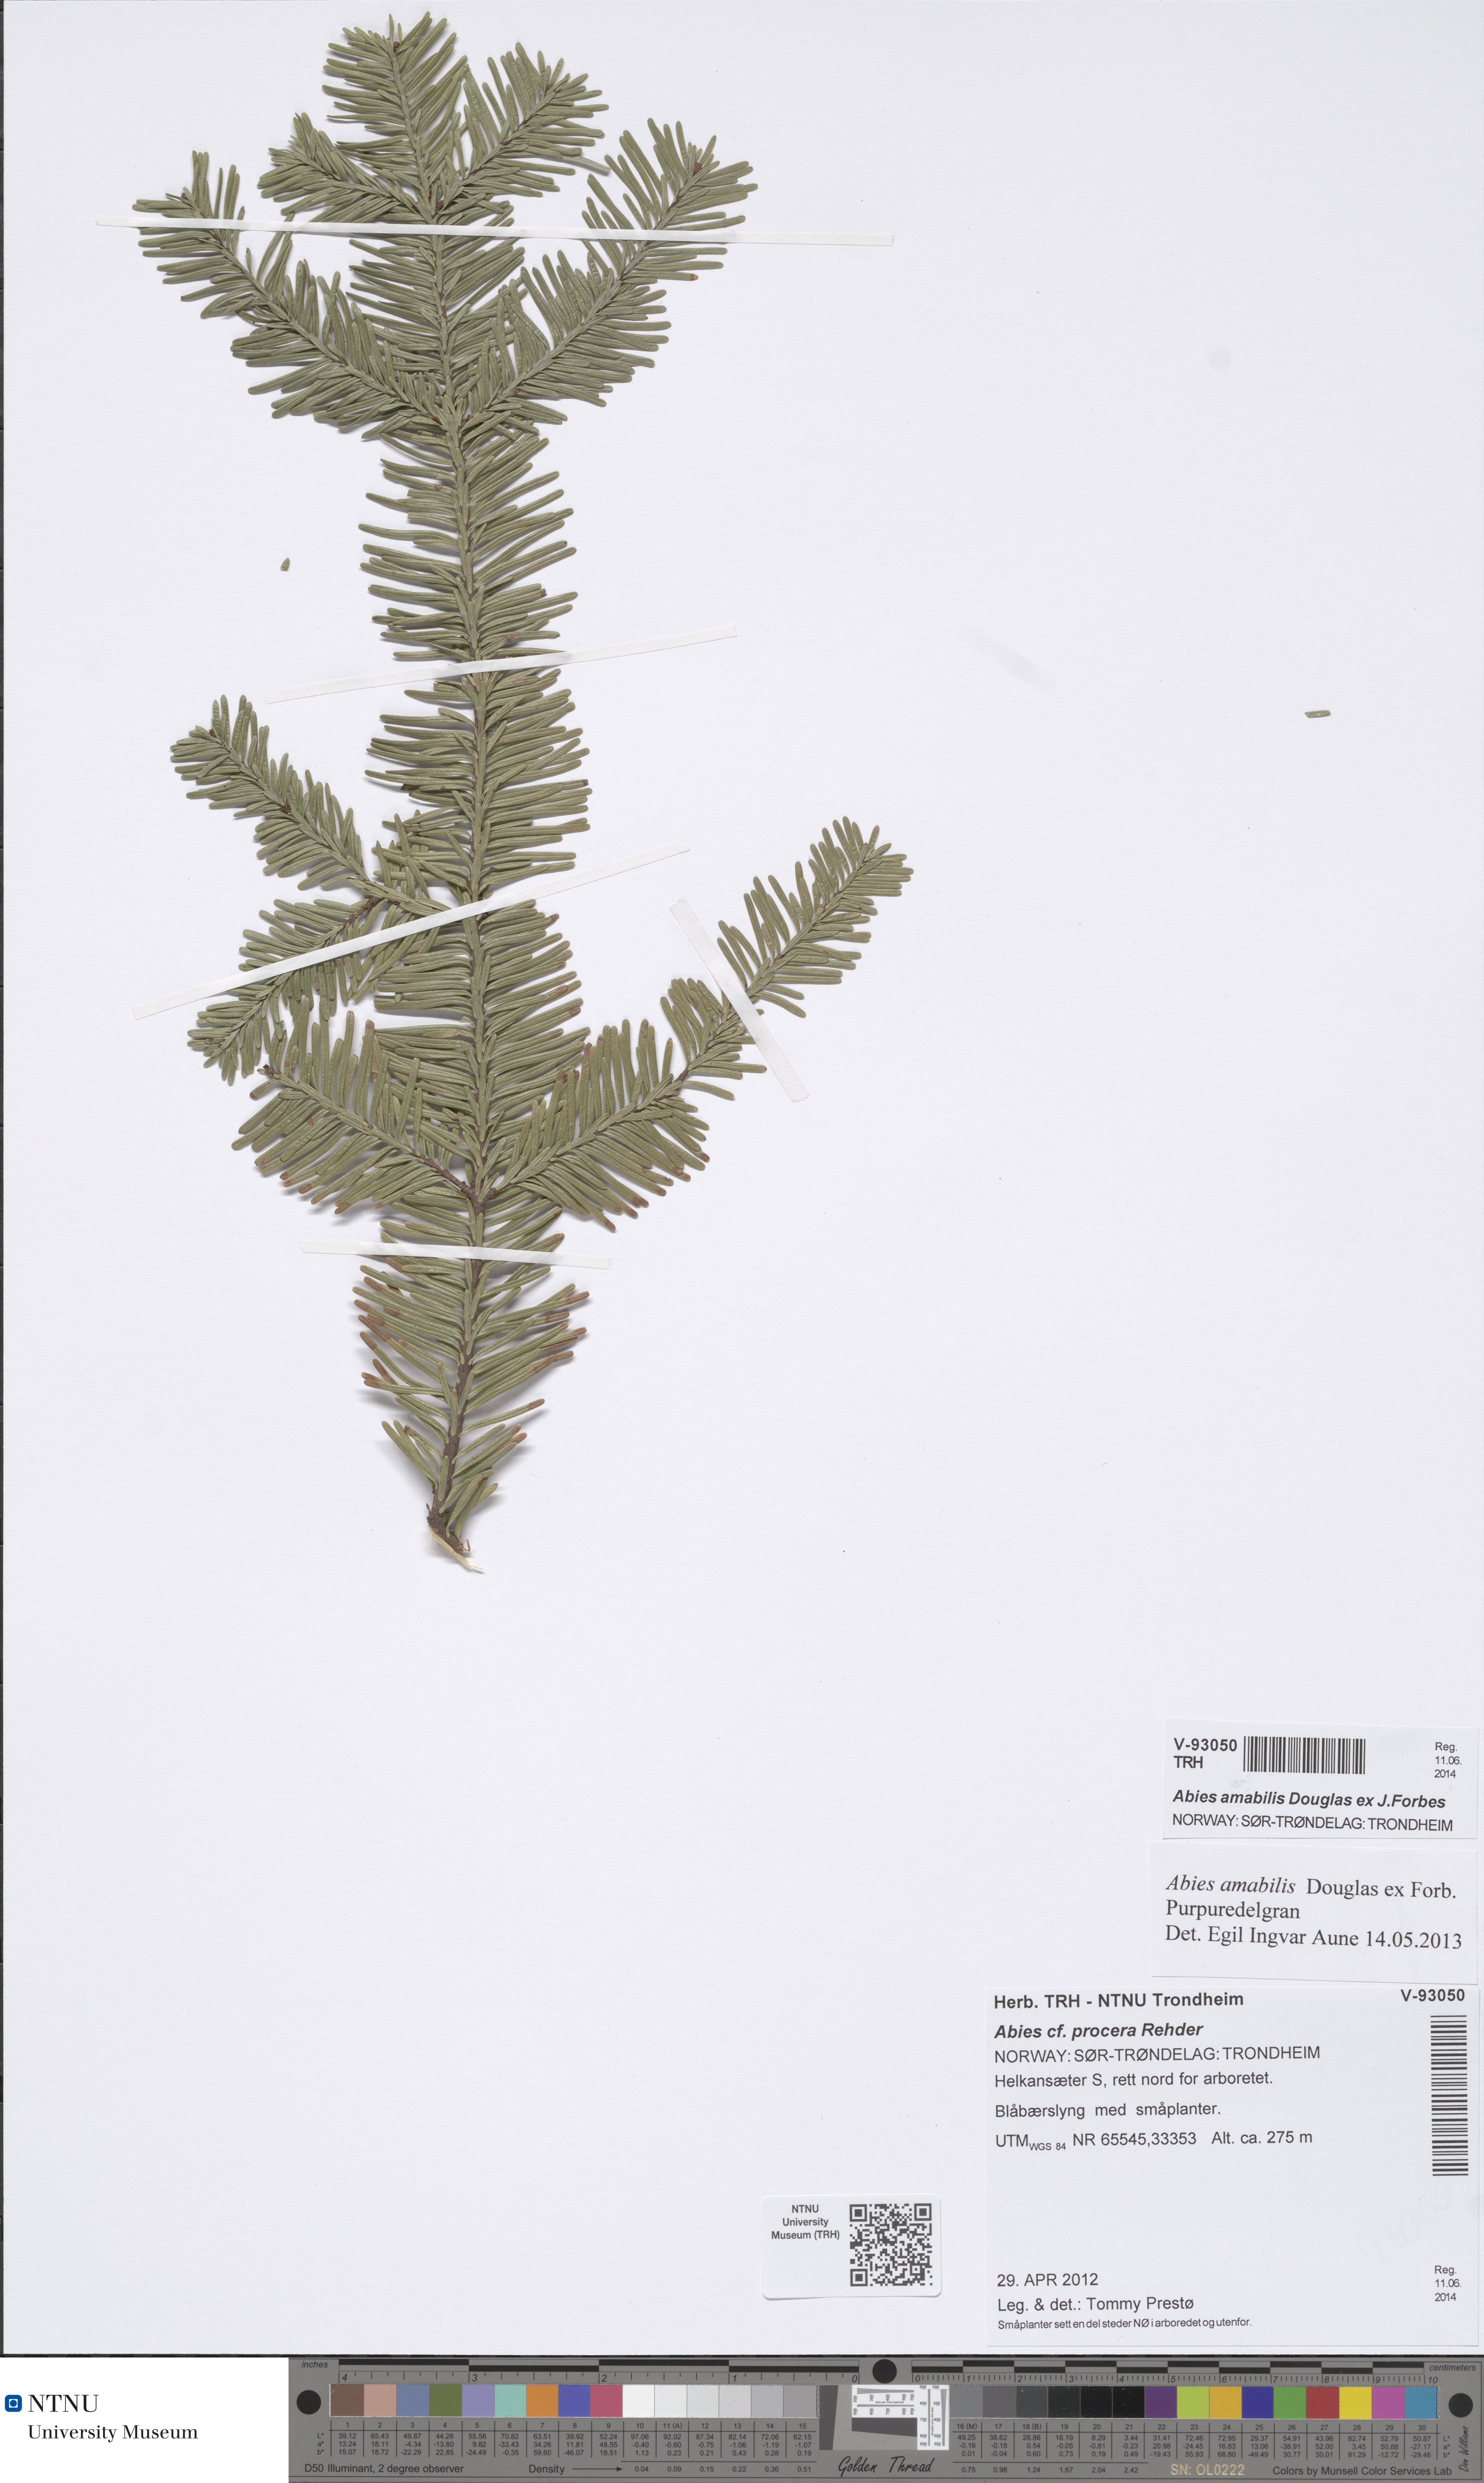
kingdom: Plantae
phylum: Tracheophyta
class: Pinopsida
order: Pinales
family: Pinaceae
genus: Abies
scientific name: Abies amabilis
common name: Pacific silver fir
